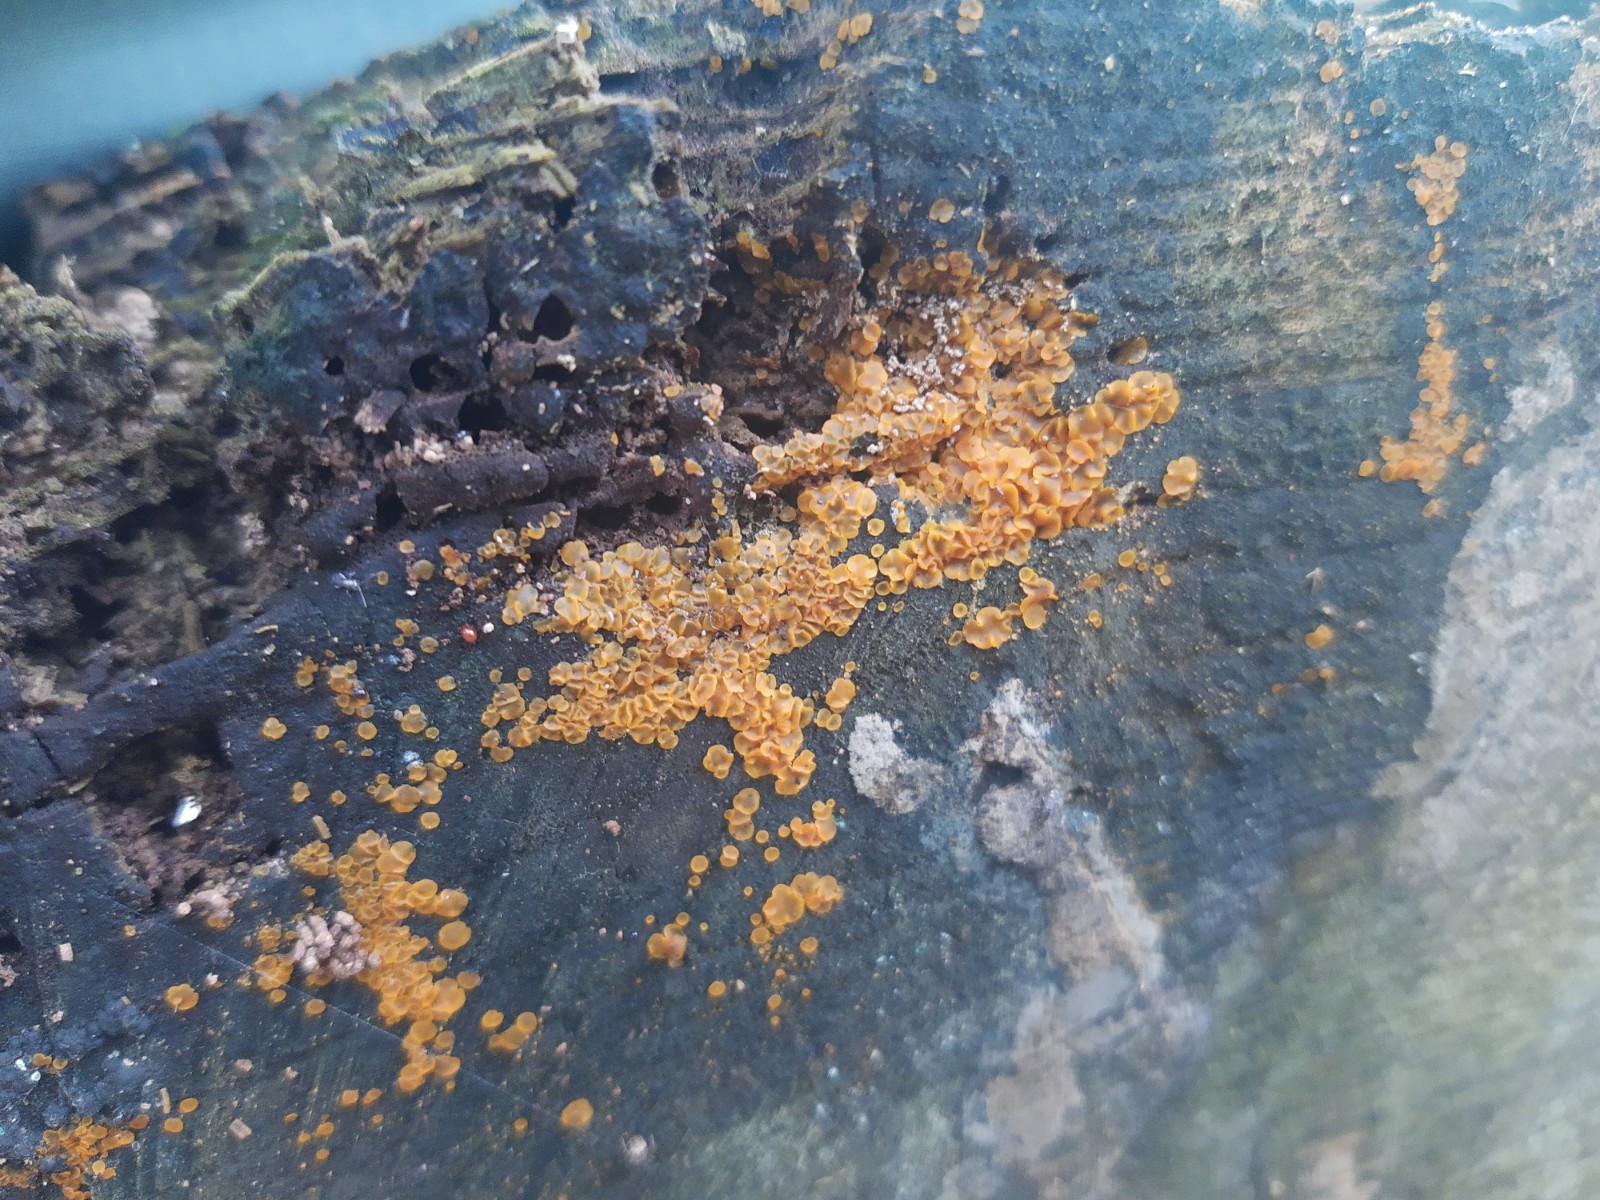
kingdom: Fungi
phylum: Ascomycota
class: Orbiliomycetes
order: Orbiliales
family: Orbiliaceae
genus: Orbilia
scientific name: Orbilia xanthostigma
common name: krumsporet voksskive
